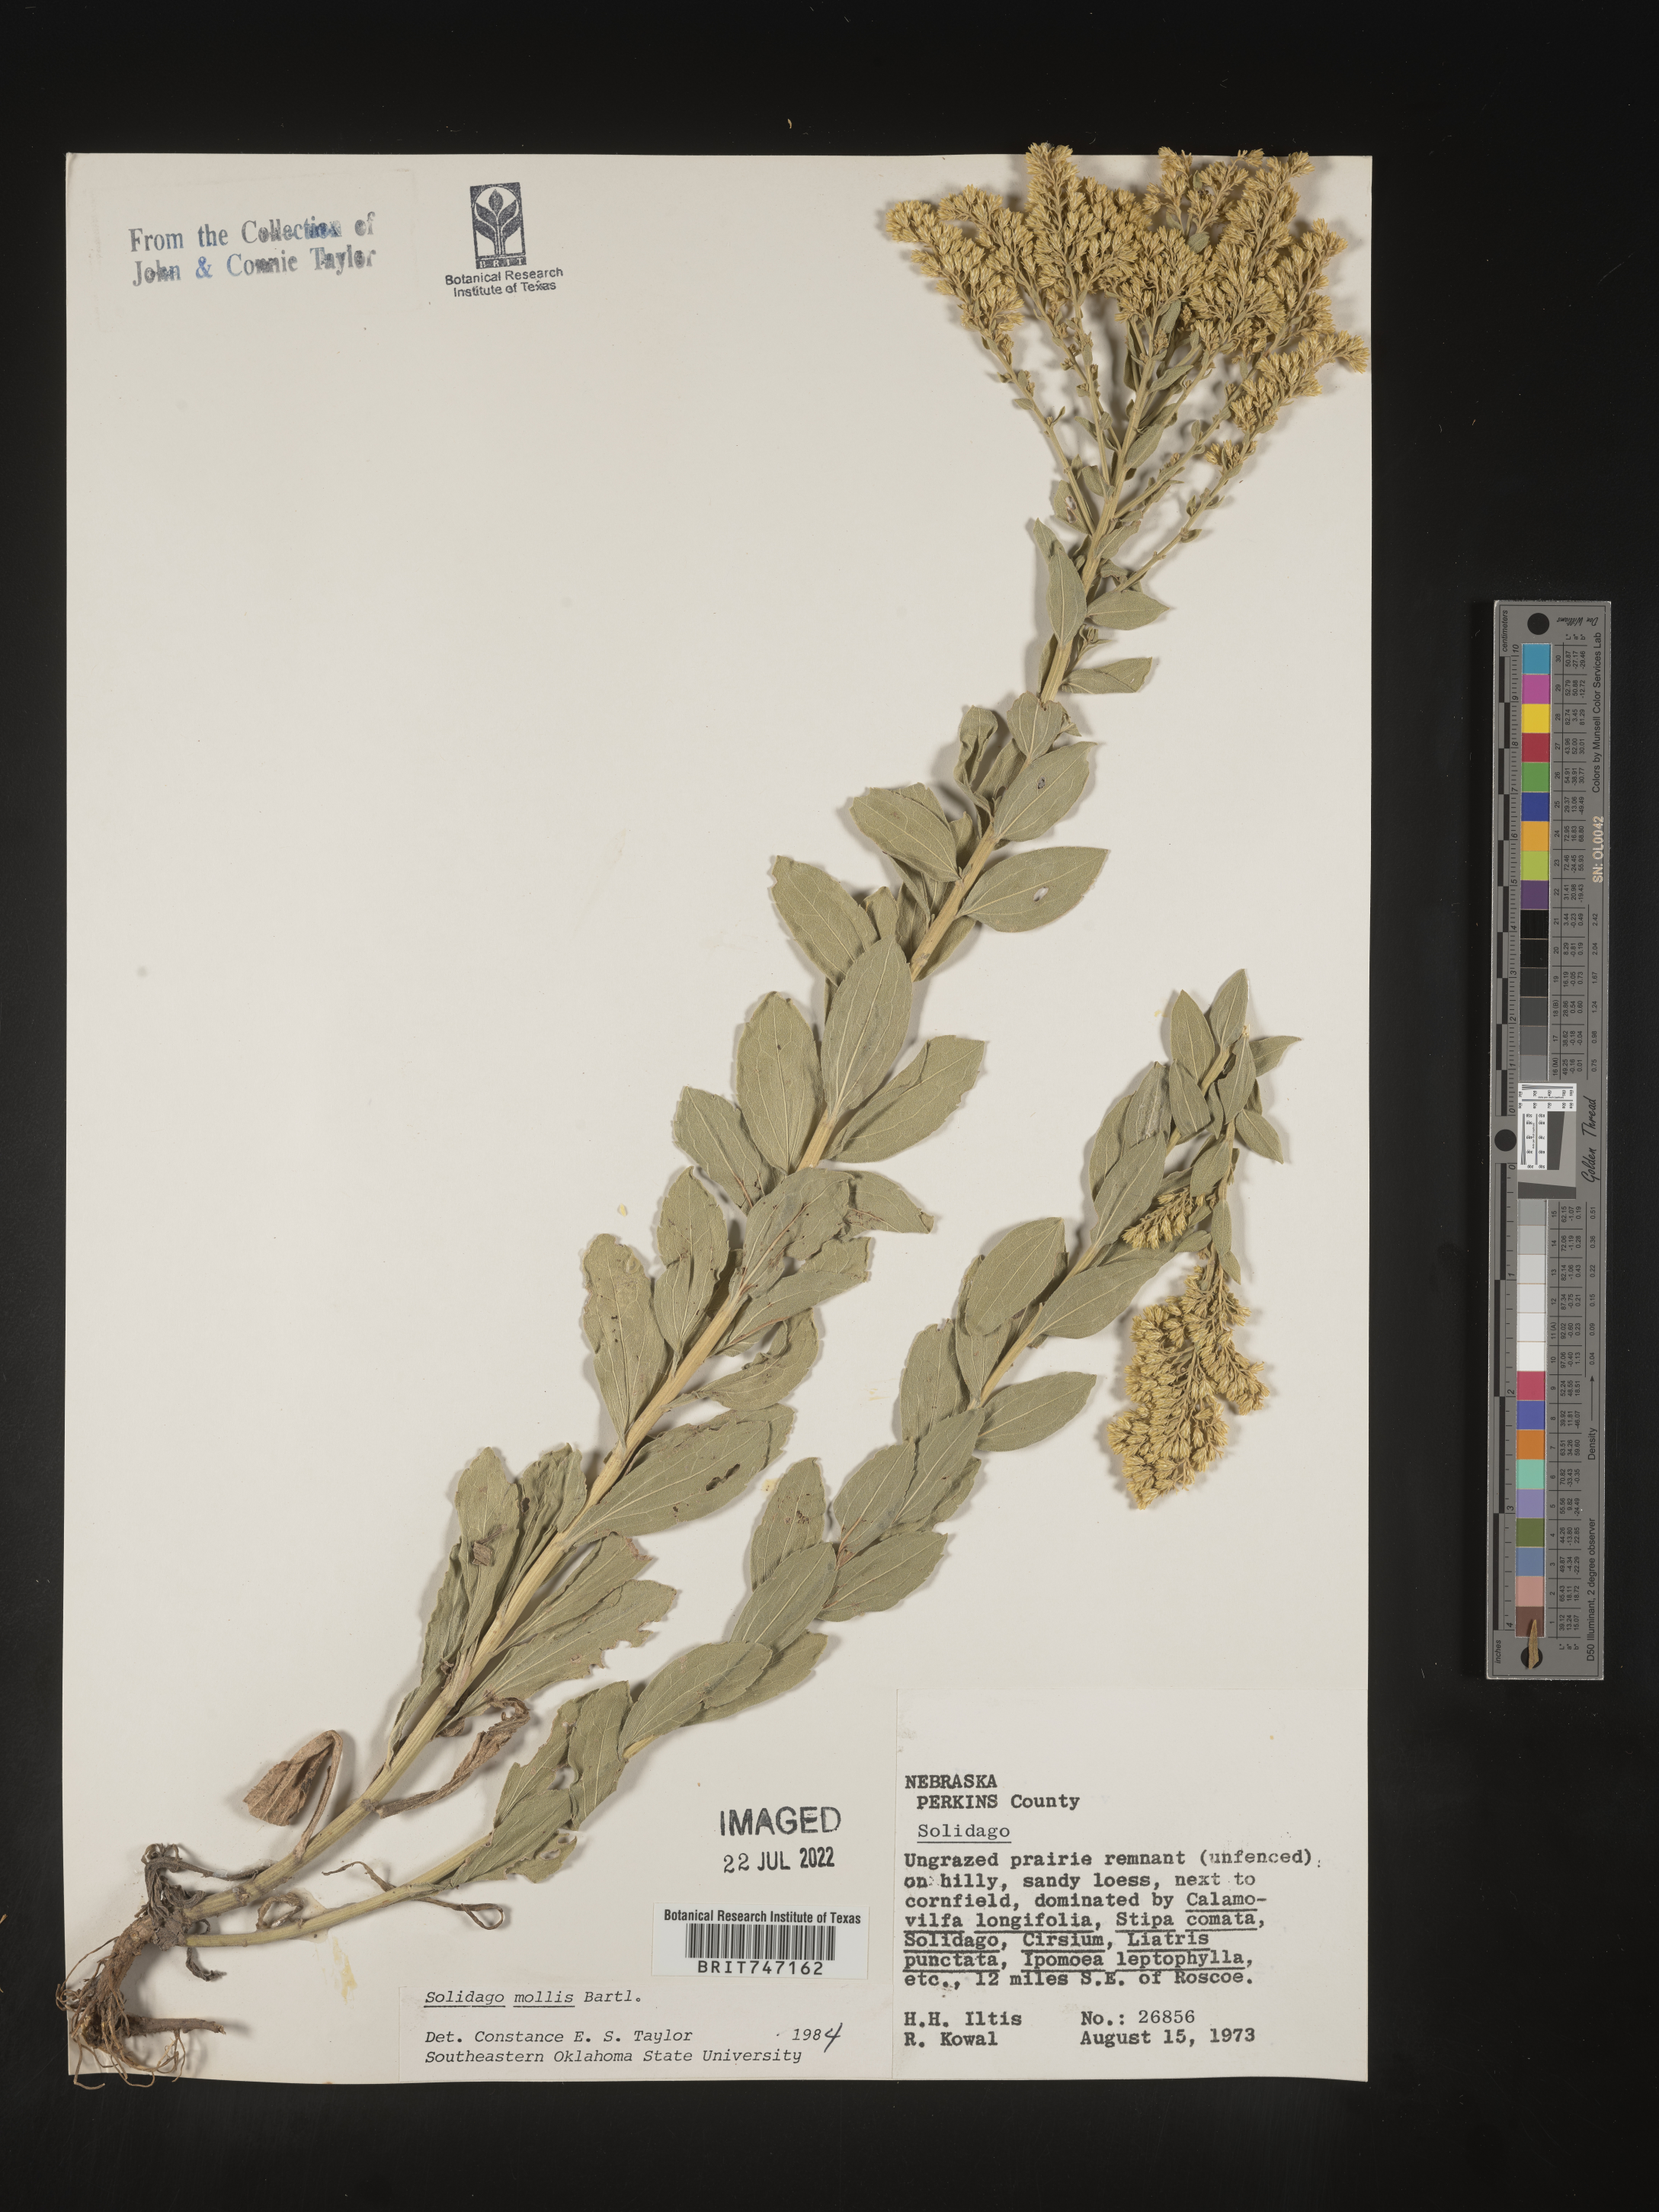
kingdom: Plantae
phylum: Tracheophyta
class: Magnoliopsida
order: Asterales
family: Asteraceae
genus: Solidago
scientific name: Solidago mollis
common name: Ashly goldenrod
